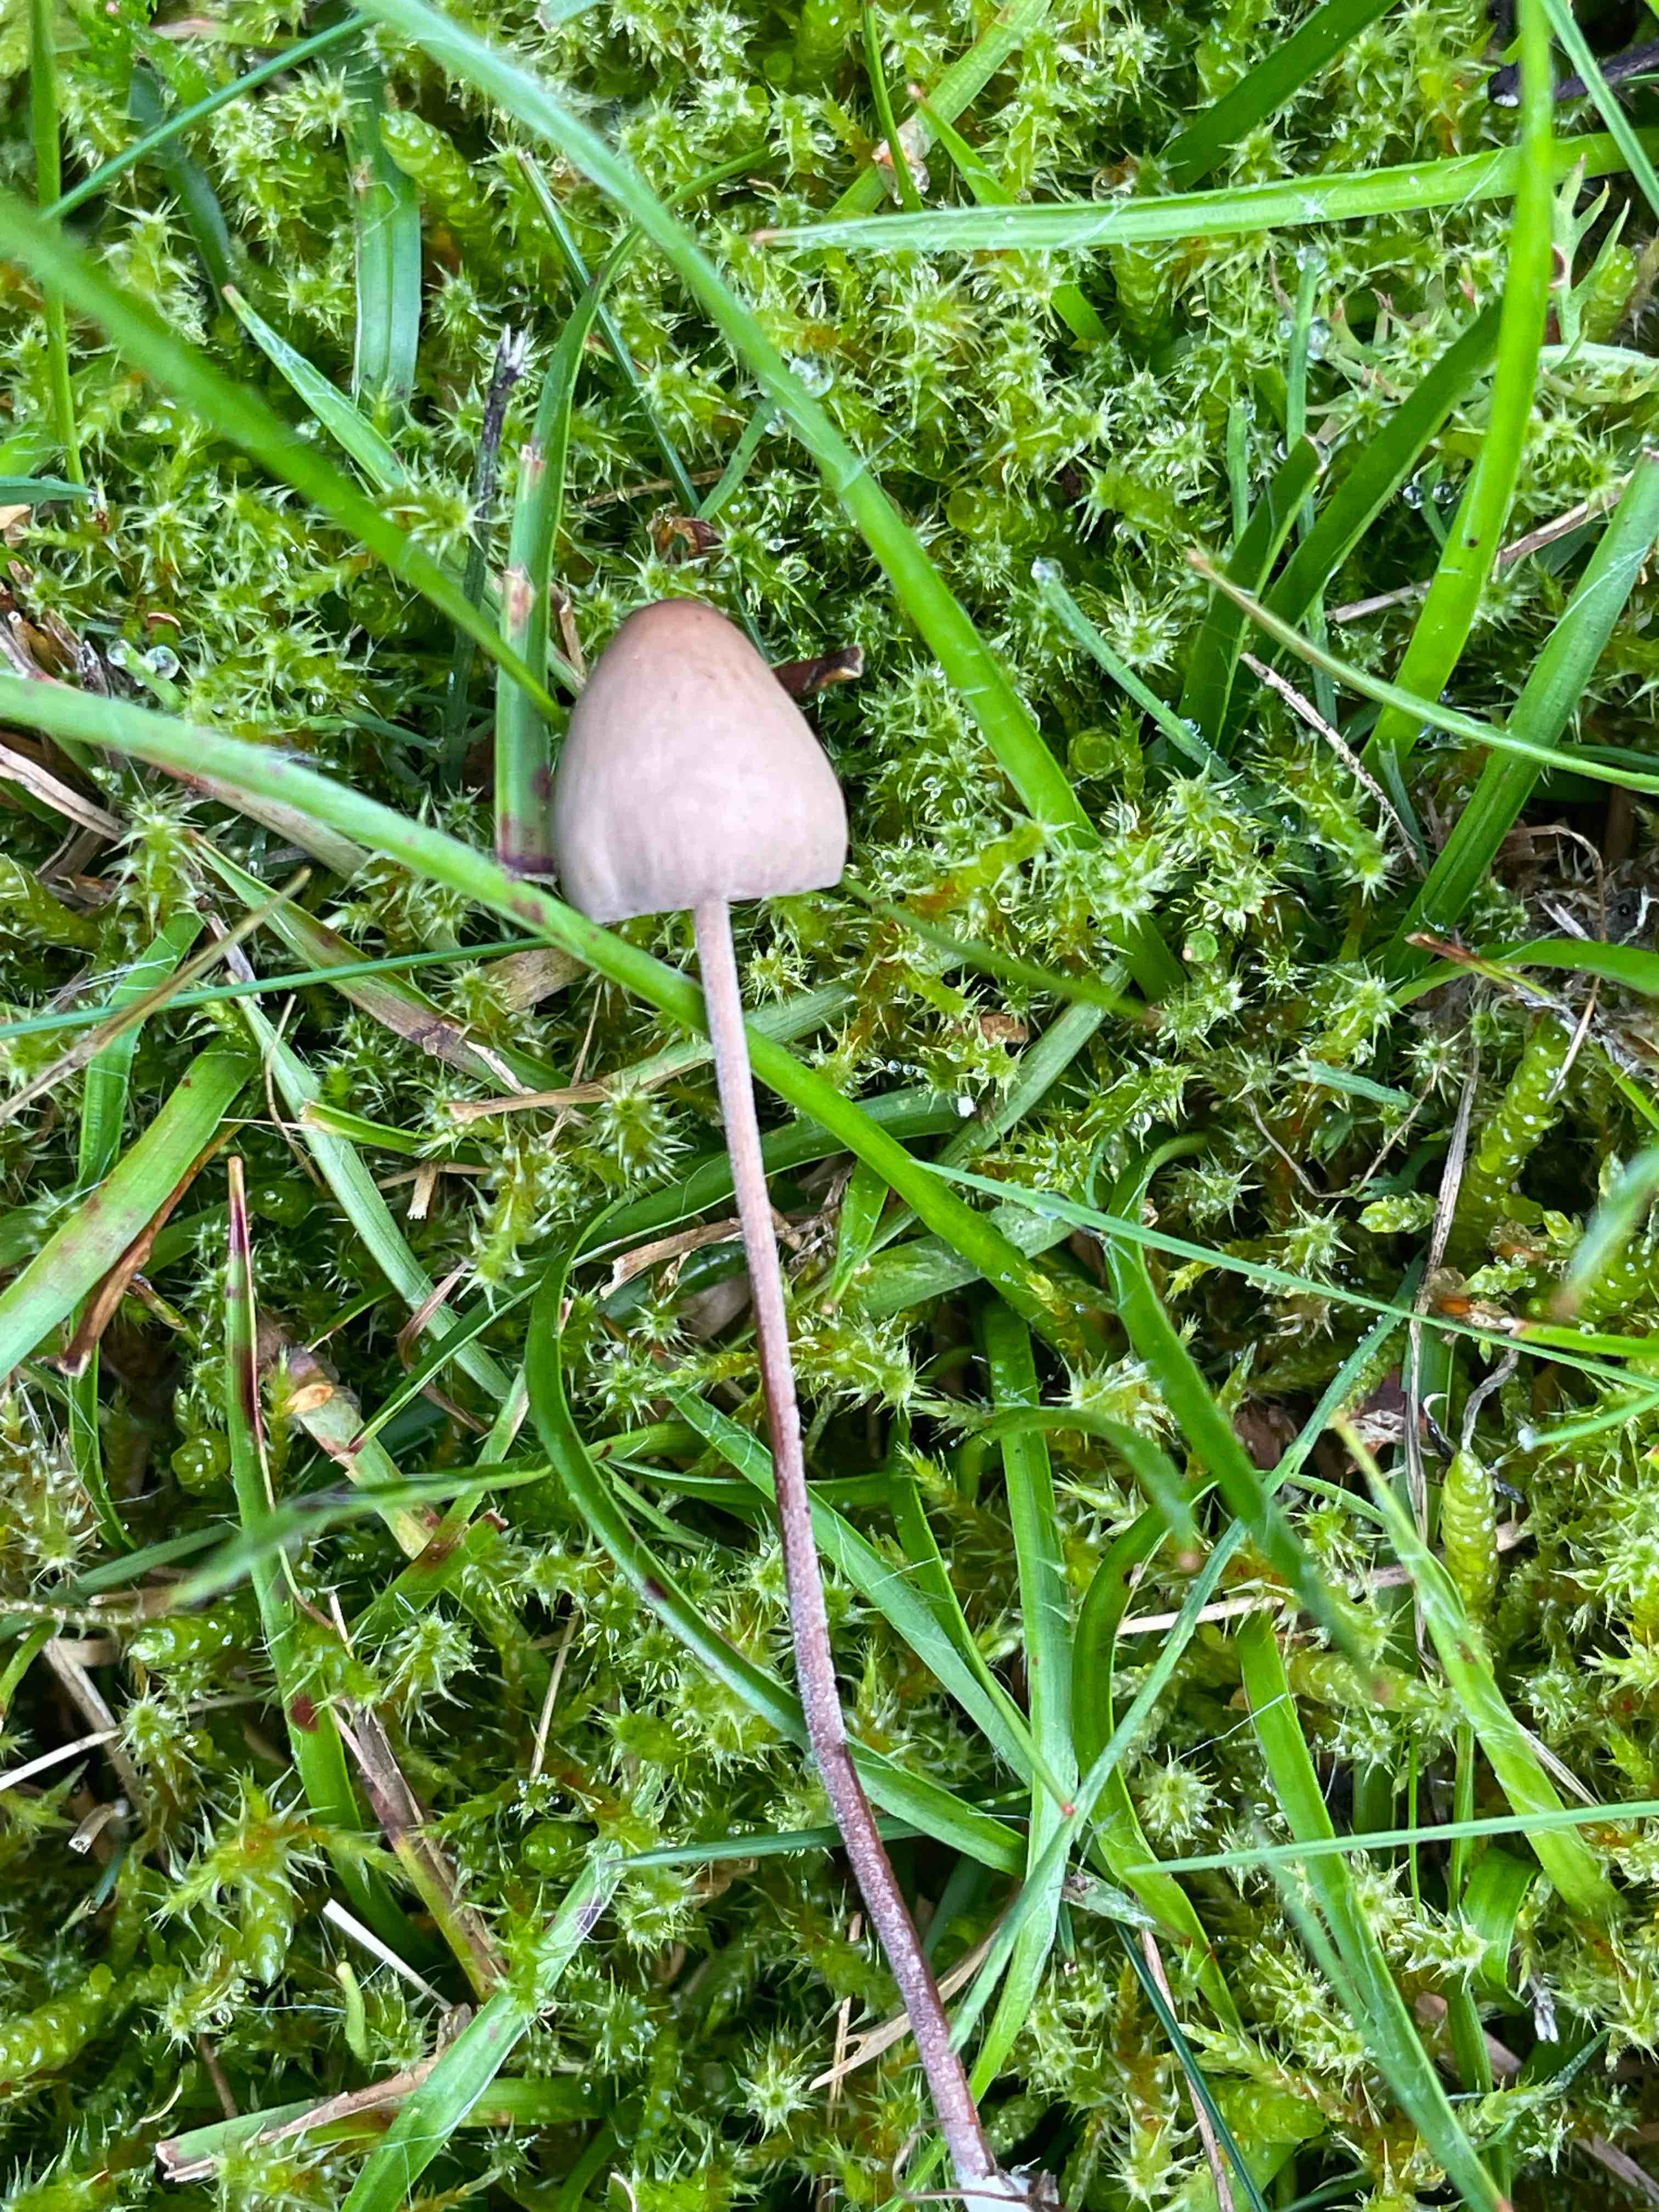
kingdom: Fungi
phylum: Basidiomycota
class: Agaricomycetes
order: Agaricales
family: Bolbitiaceae
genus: Panaeolus
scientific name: Panaeolus acuminatus
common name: høj glanshat
